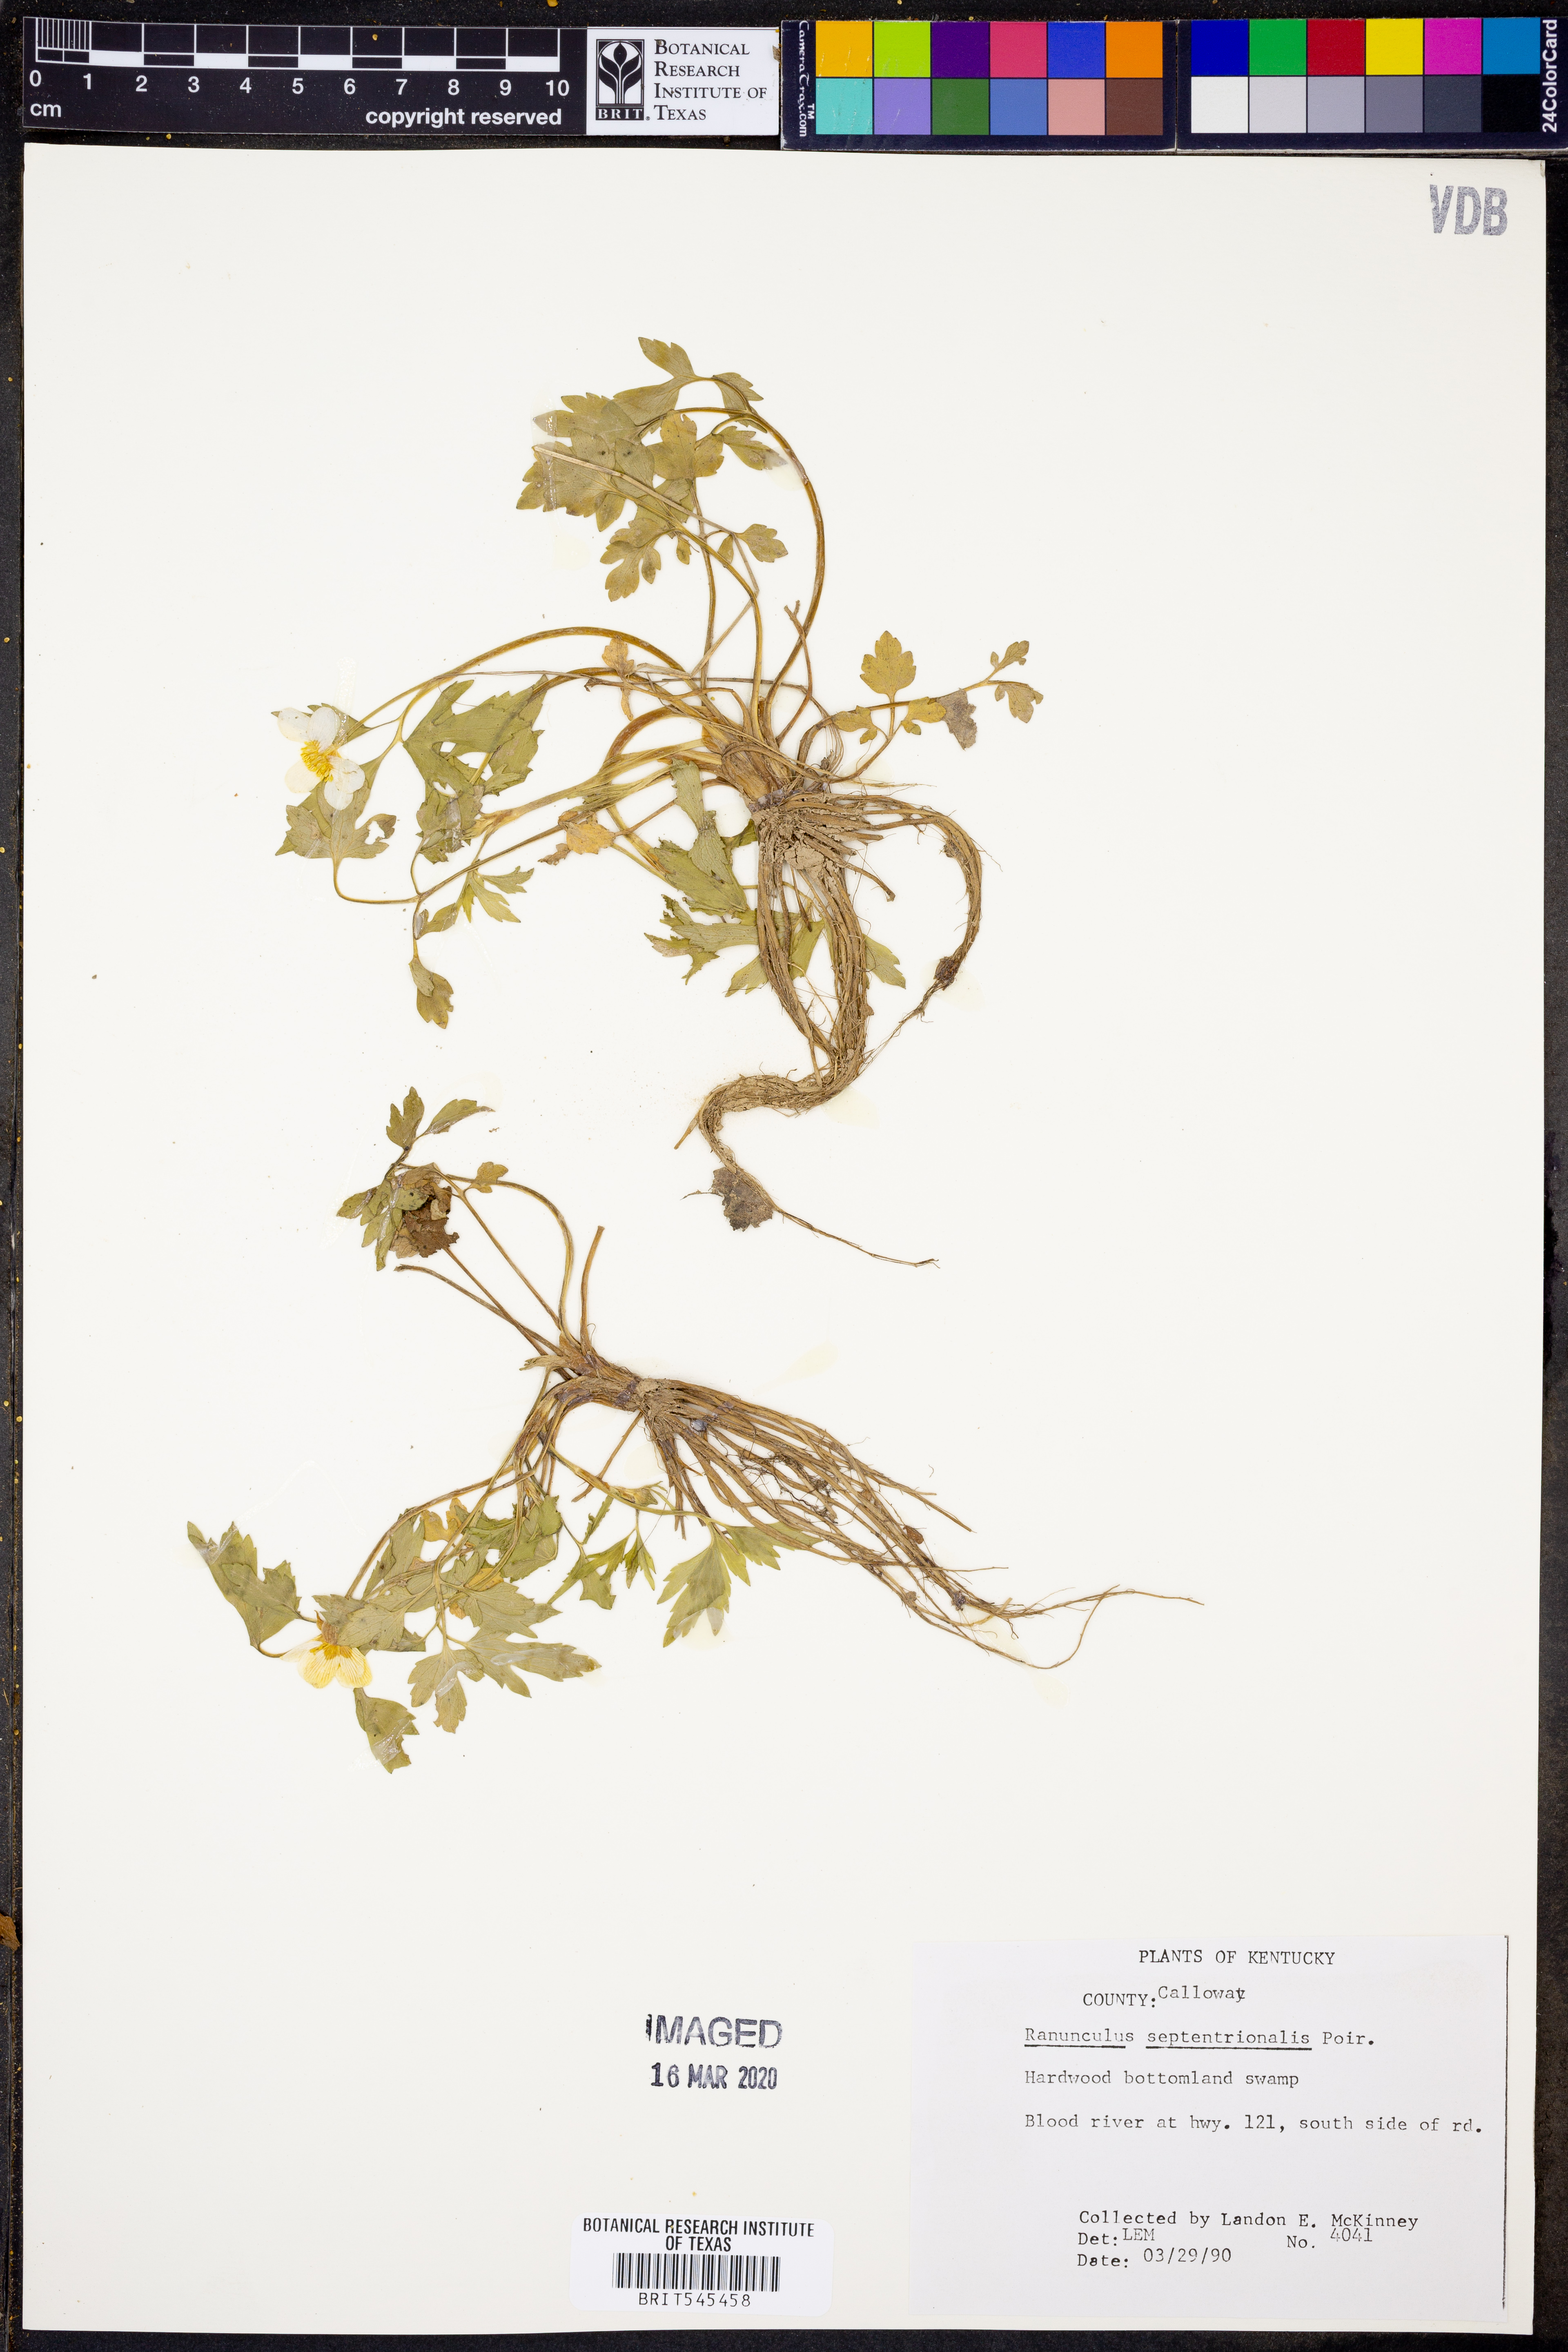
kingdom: Plantae
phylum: Tracheophyta
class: Magnoliopsida
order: Ranunculales
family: Ranunculaceae
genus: Ranunculus
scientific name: Ranunculus hispidus
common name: Bristly buttercup
